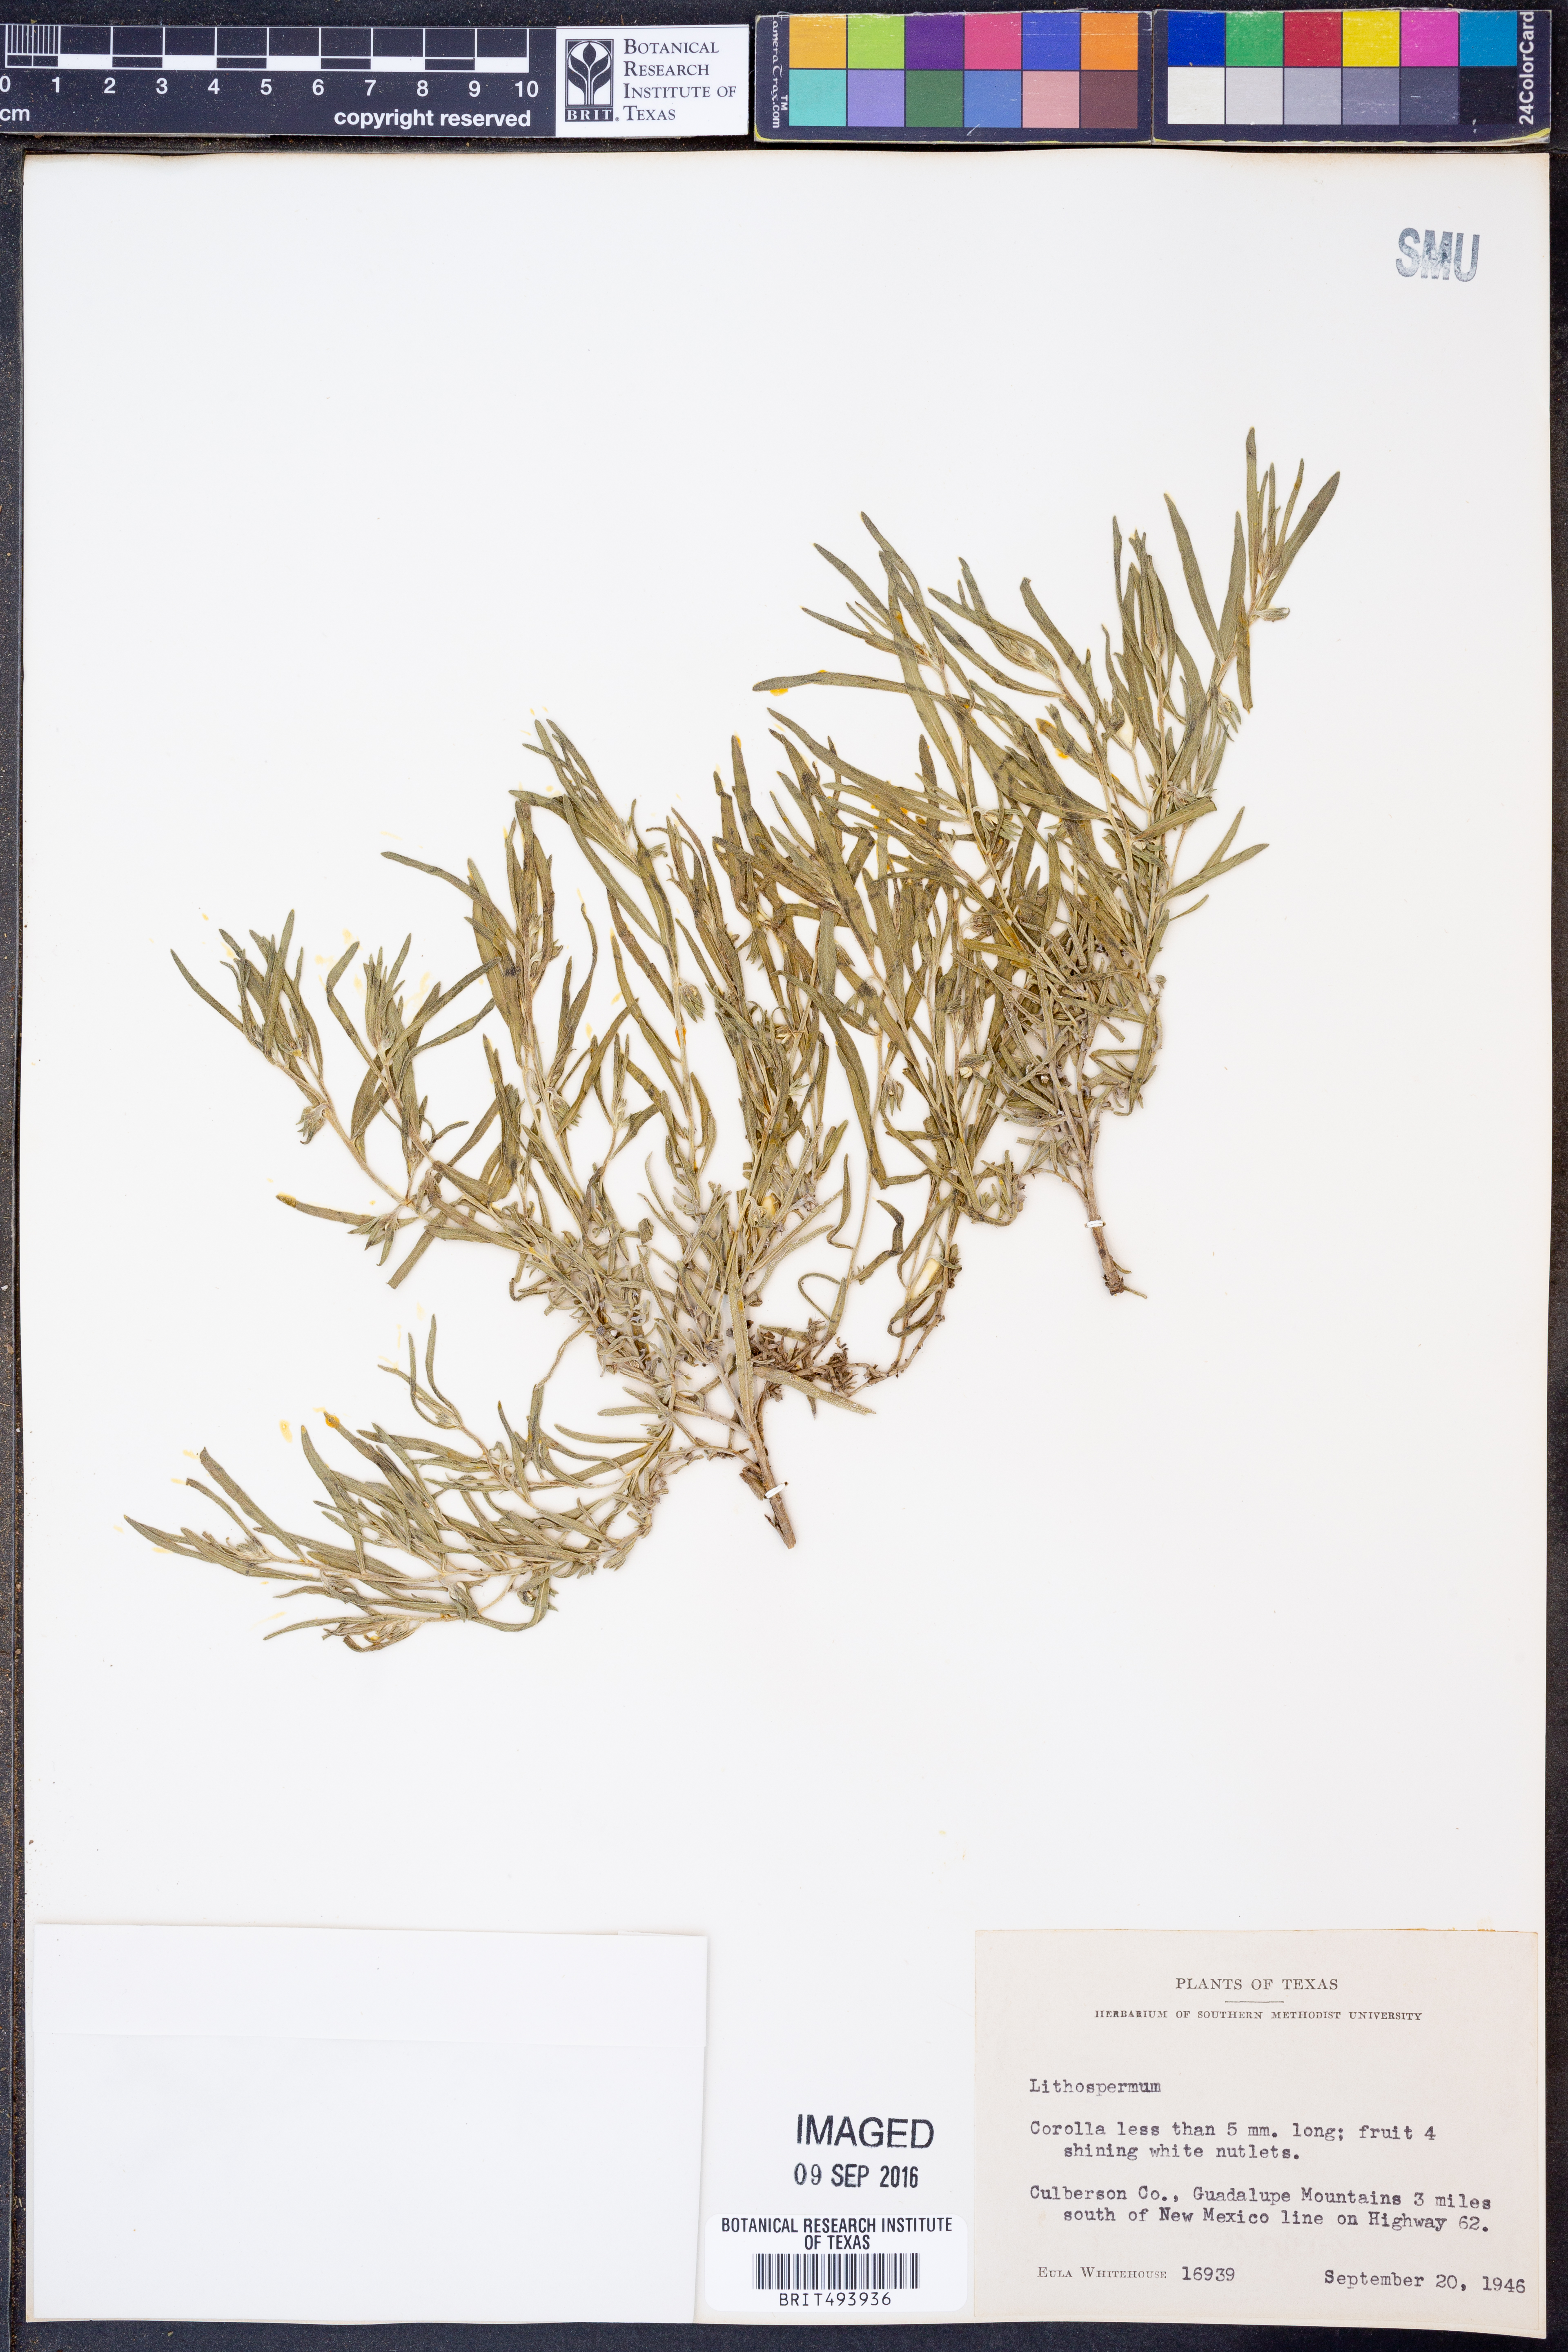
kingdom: Plantae
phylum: Tracheophyta
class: Magnoliopsida
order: Boraginales
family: Boraginaceae
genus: Lithospermum
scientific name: Lithospermum
